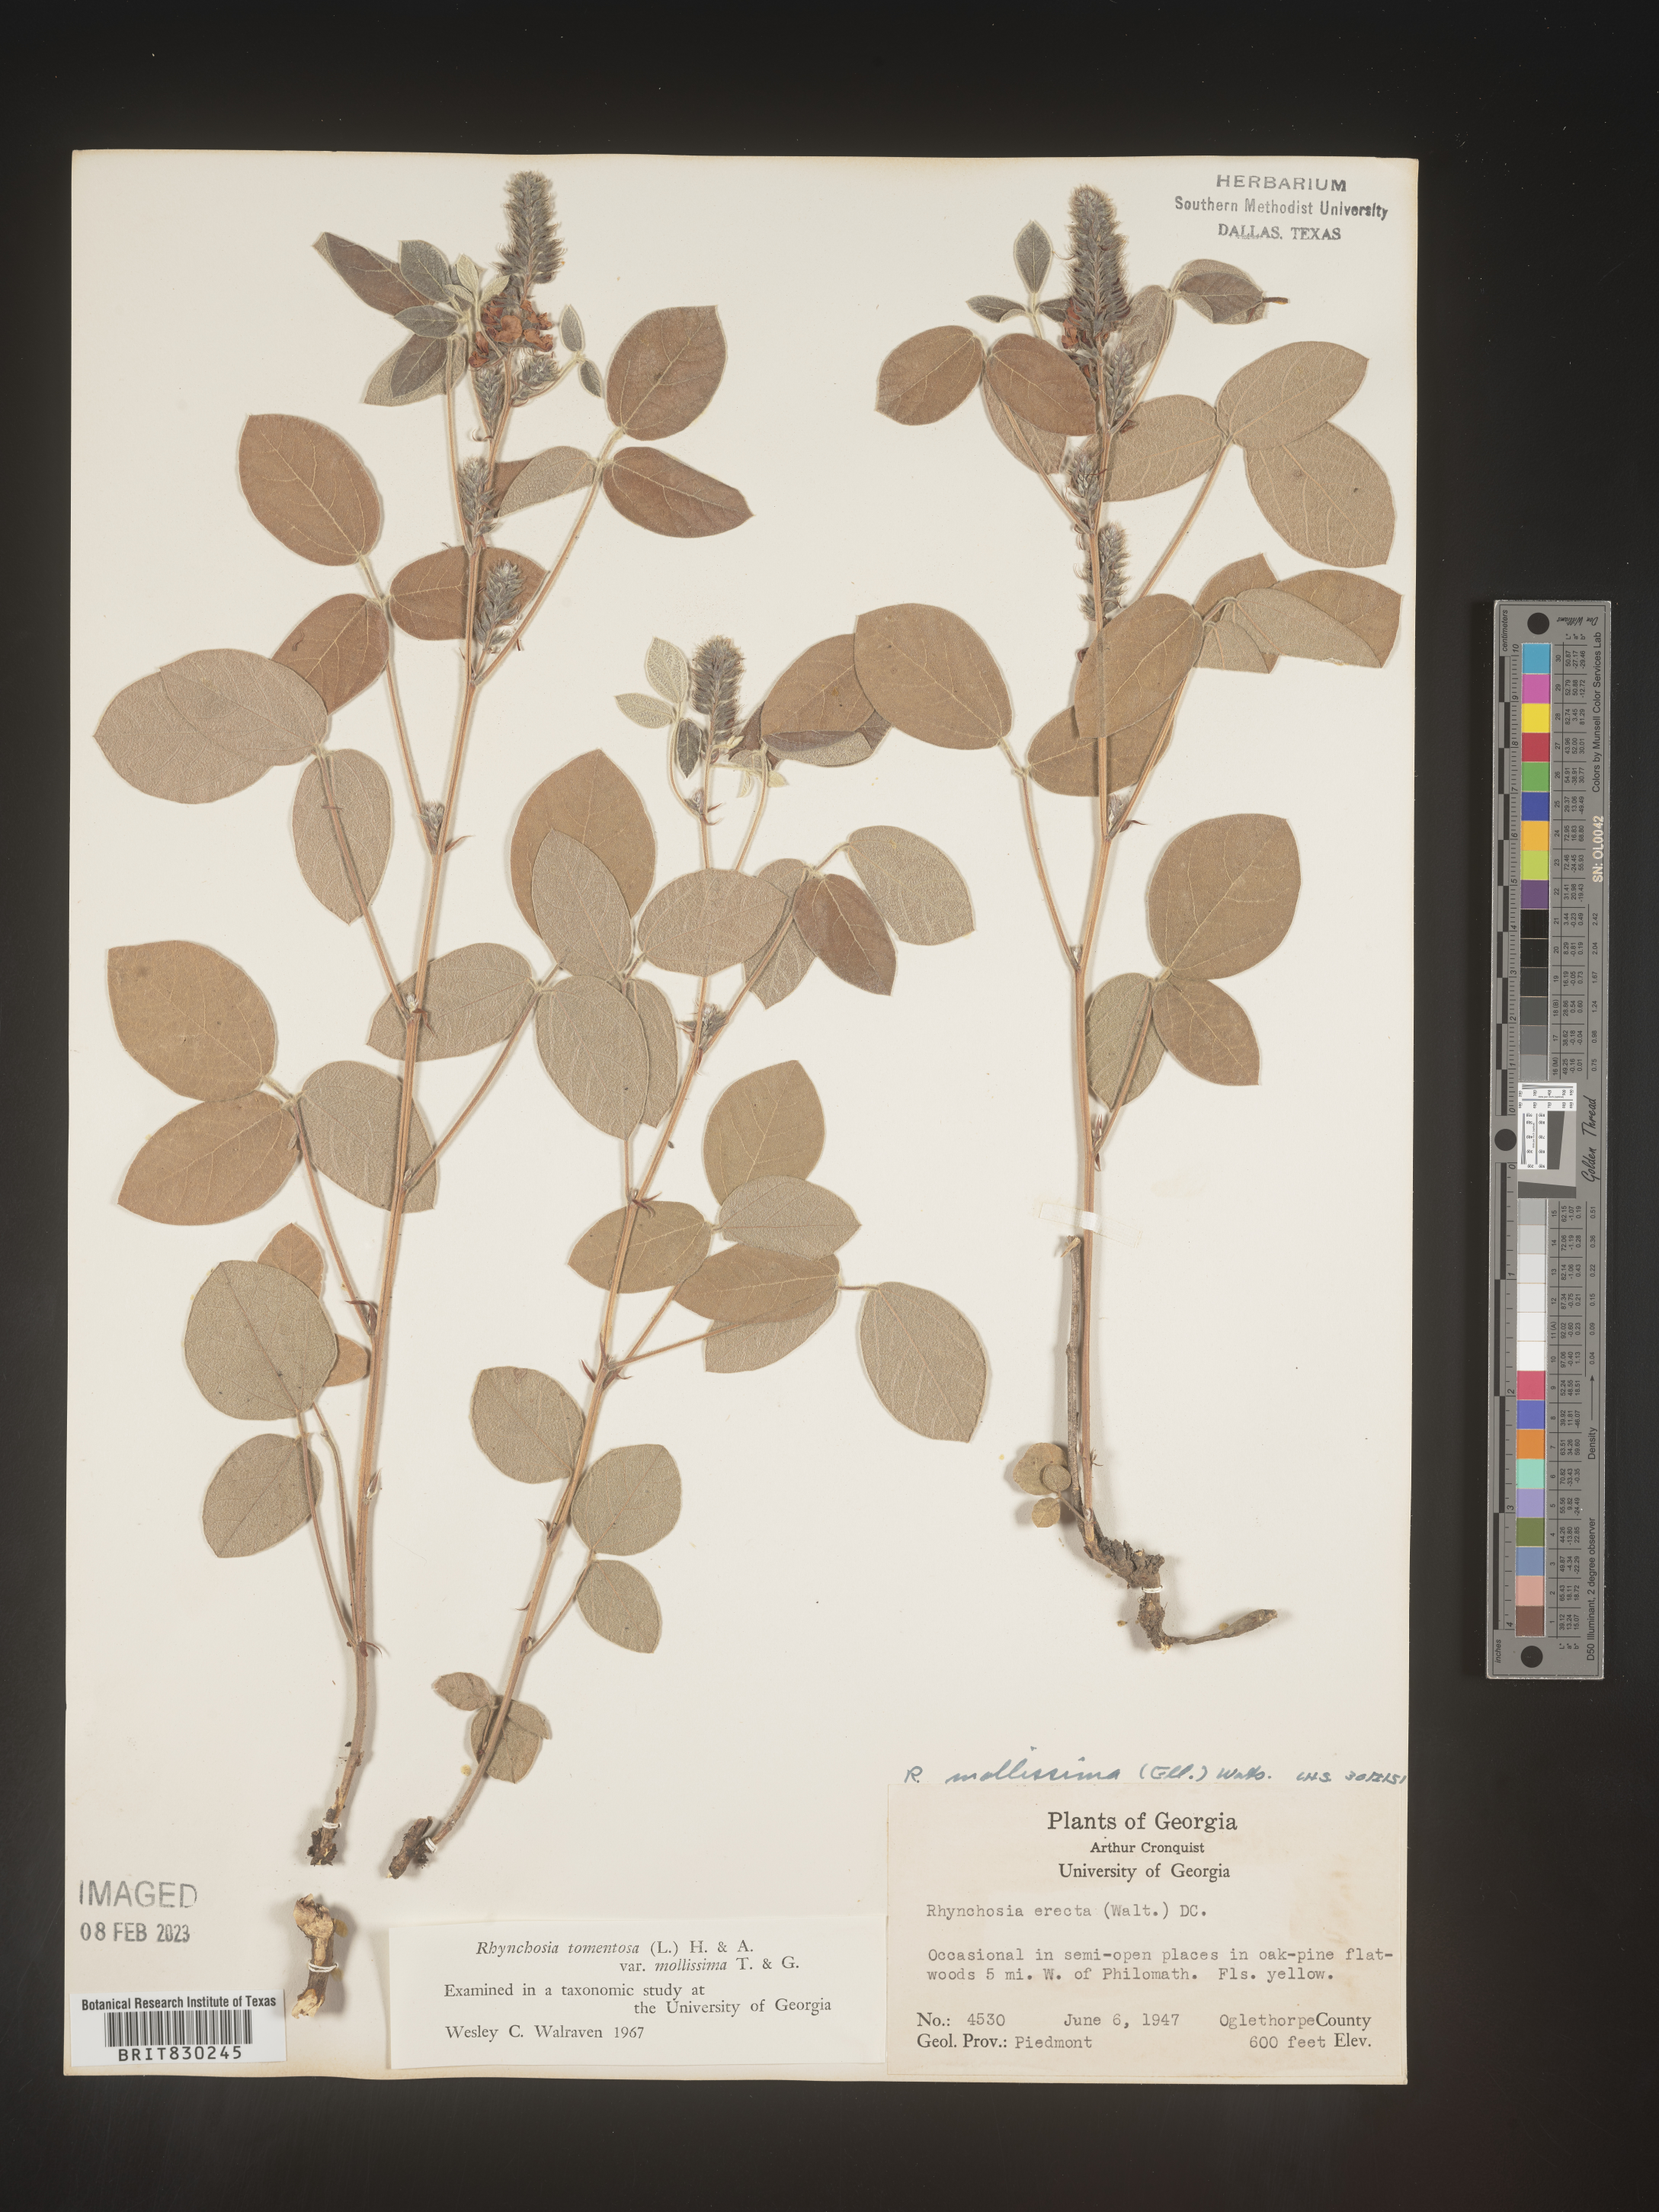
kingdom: Plantae
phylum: Tracheophyta
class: Magnoliopsida
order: Fabales
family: Fabaceae
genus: Rhynchosia
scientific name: Rhynchosia rothii
